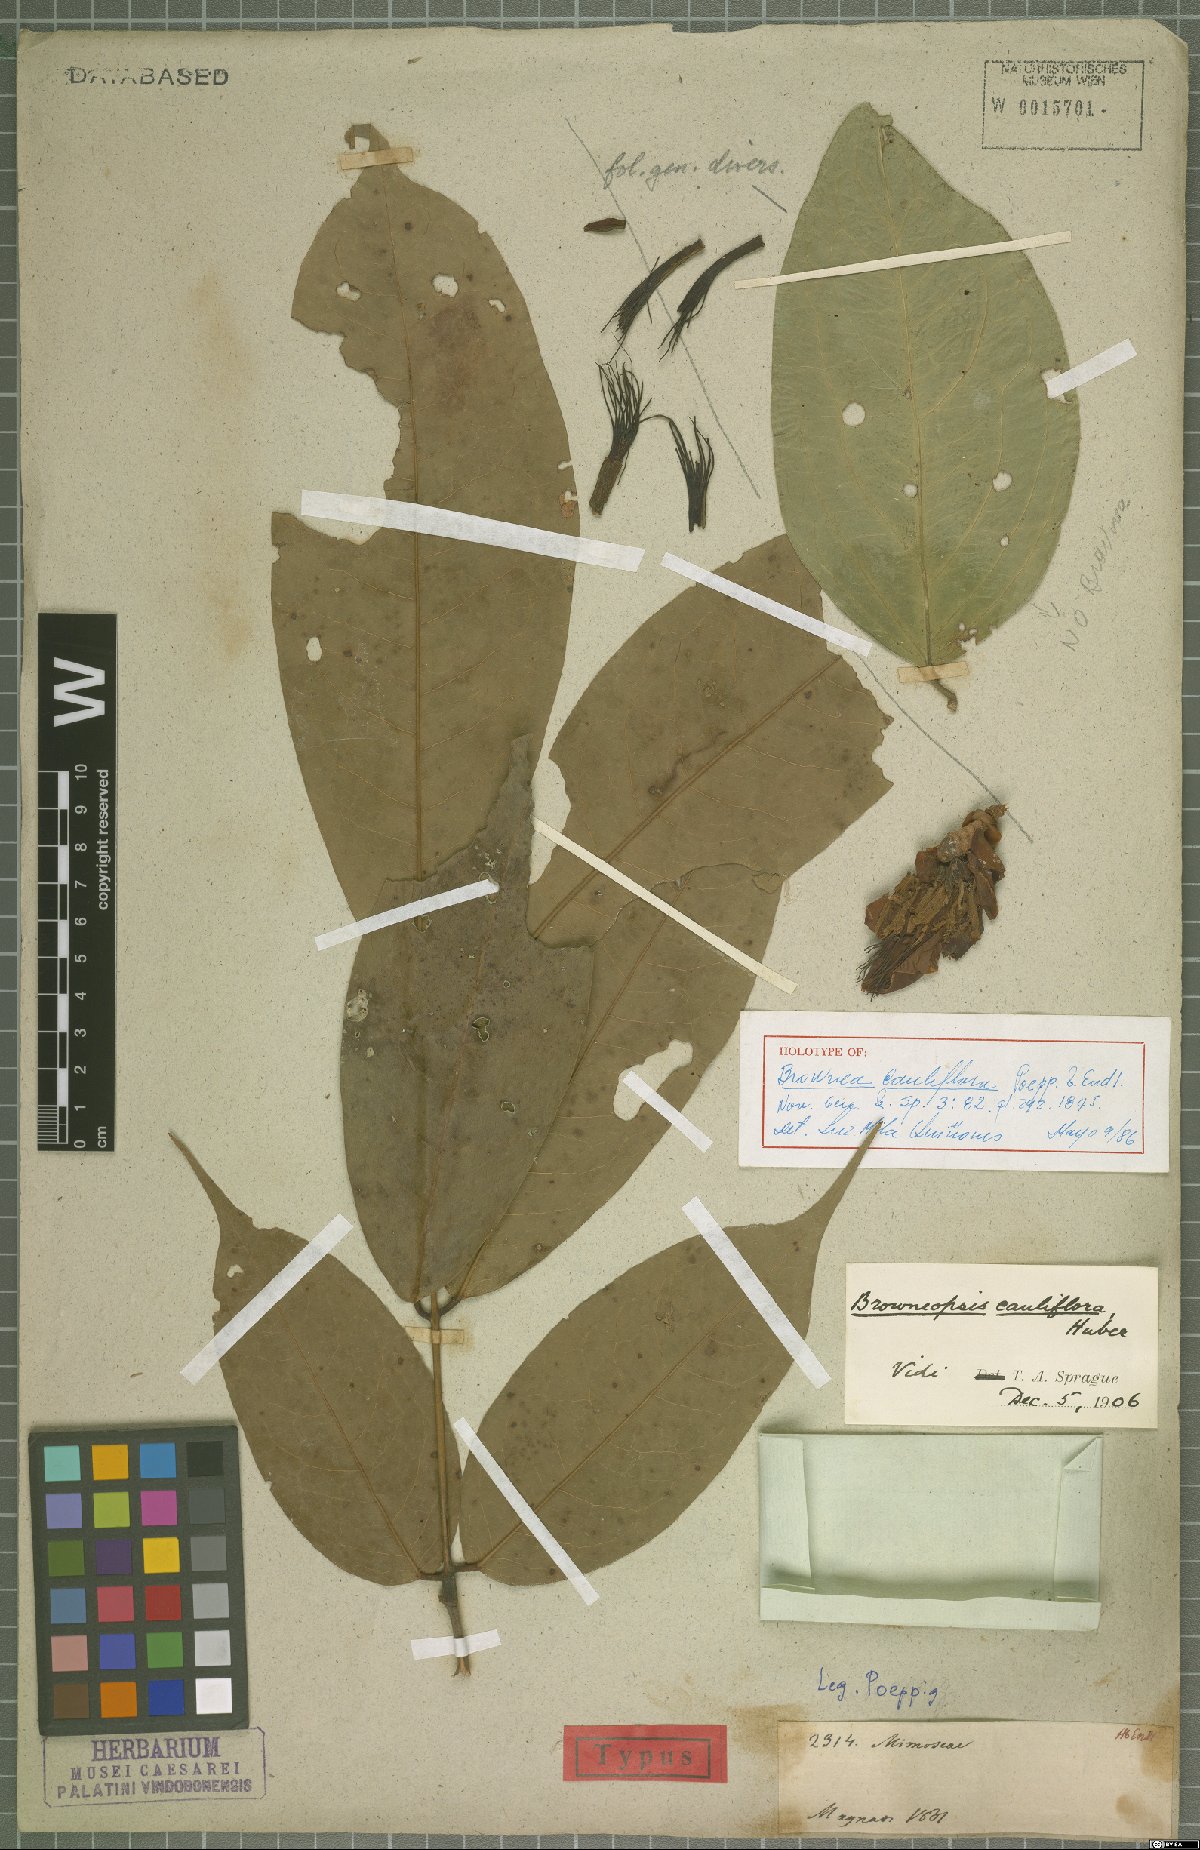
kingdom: Plantae
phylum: Tracheophyta
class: Magnoliopsida
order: Fabales
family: Fabaceae
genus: Browneopsis
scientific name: Browneopsis cauliflora
